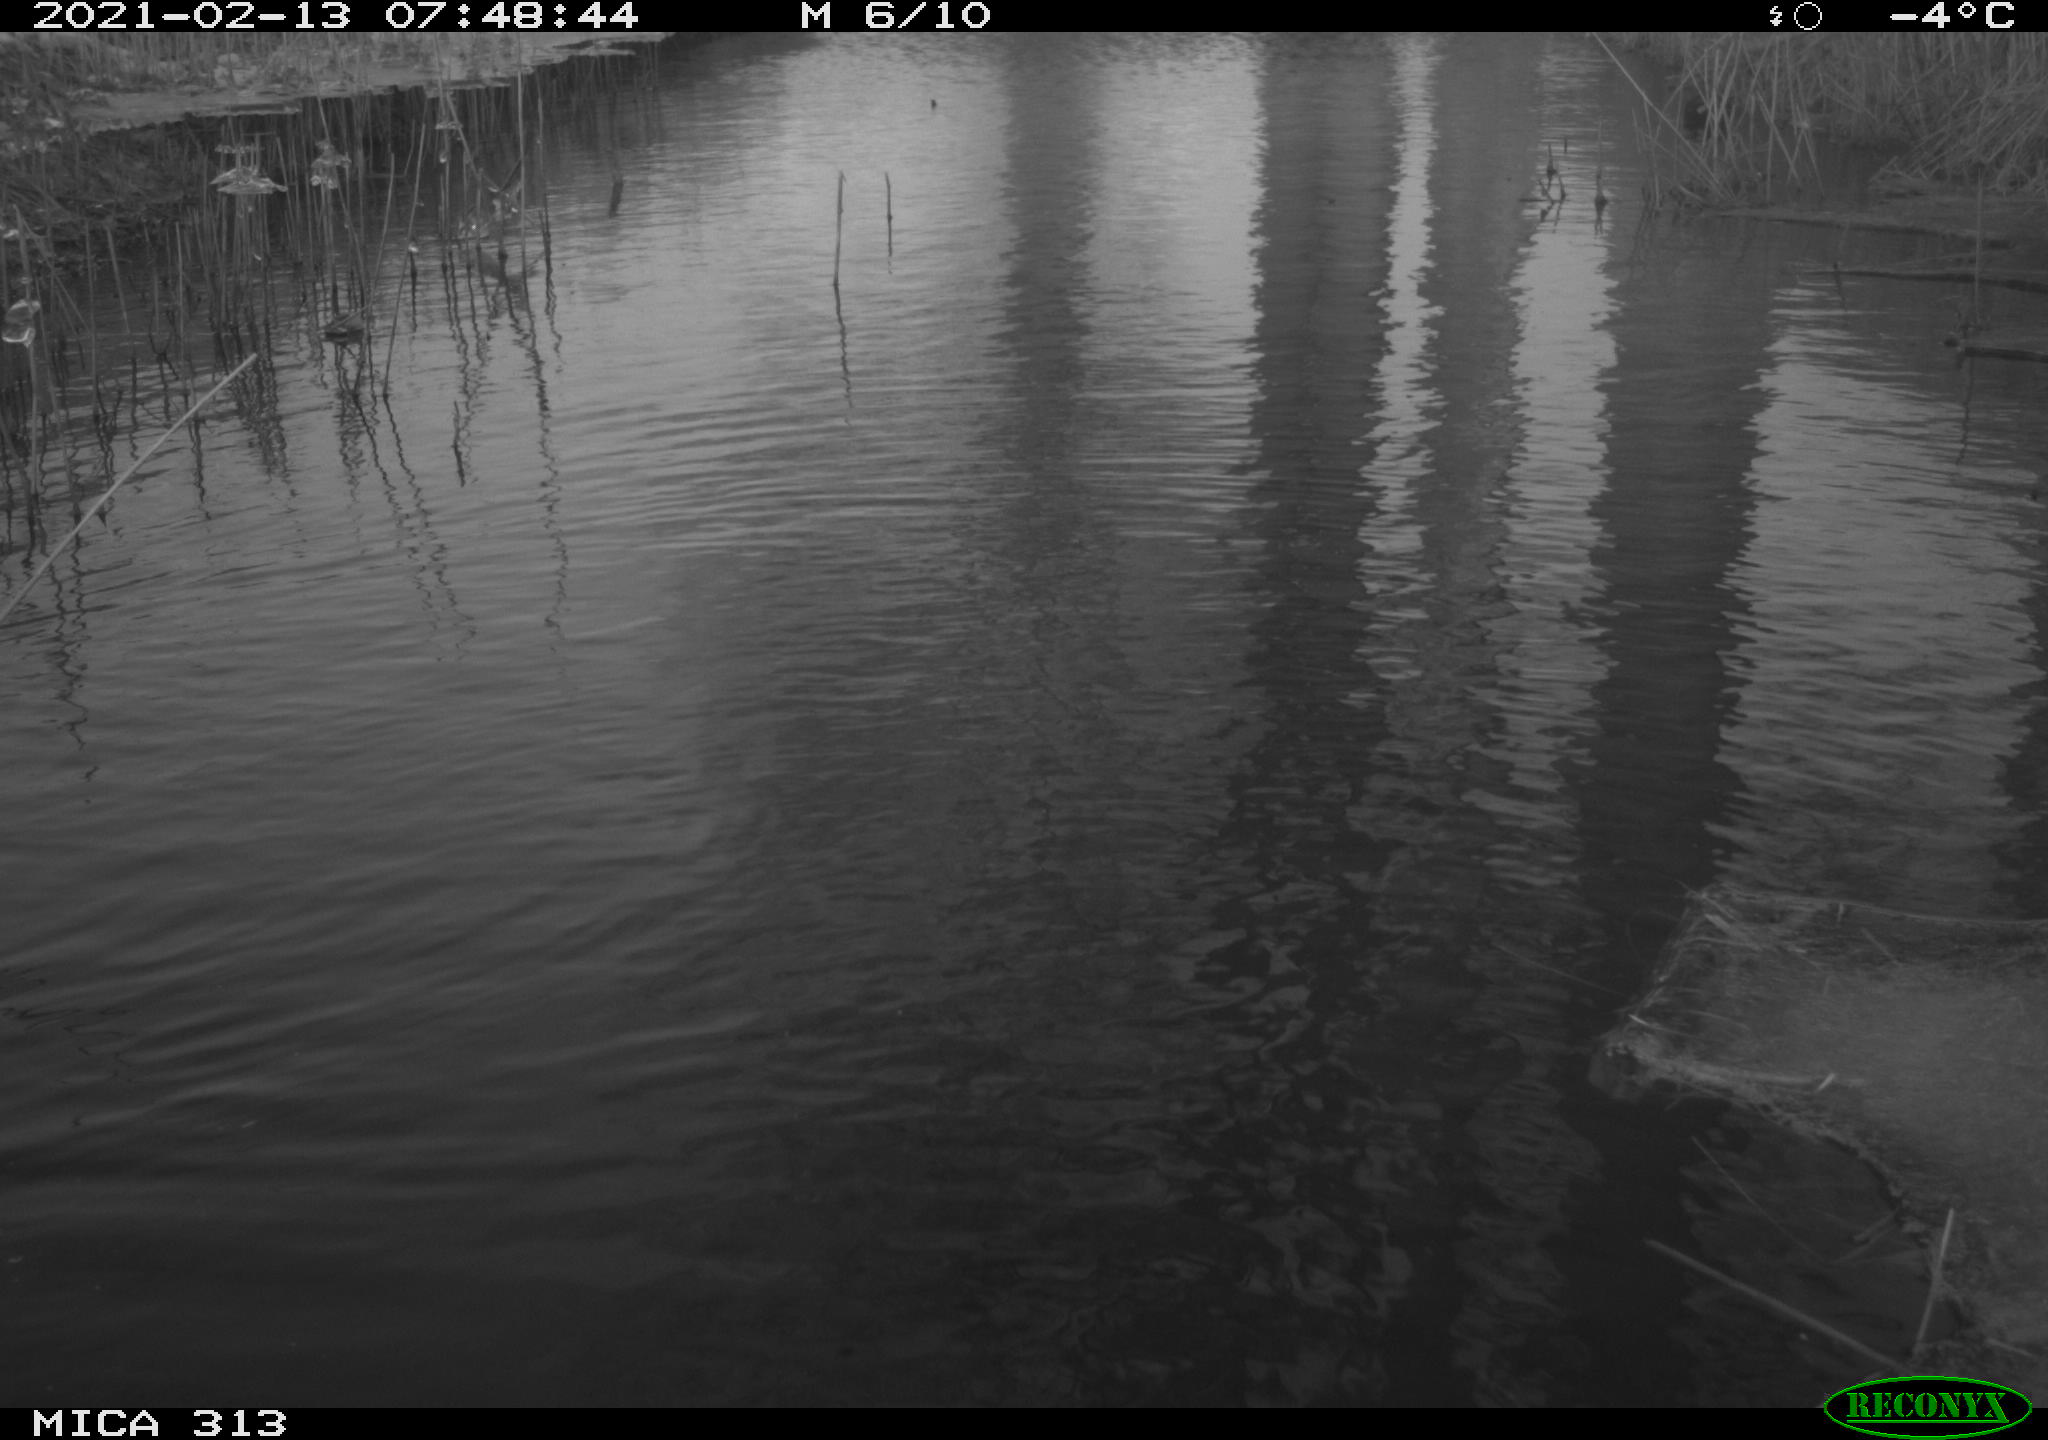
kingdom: Animalia
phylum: Chordata
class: Aves
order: Gruiformes
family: Rallidae
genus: Gallinula
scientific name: Gallinula chloropus
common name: Common moorhen
